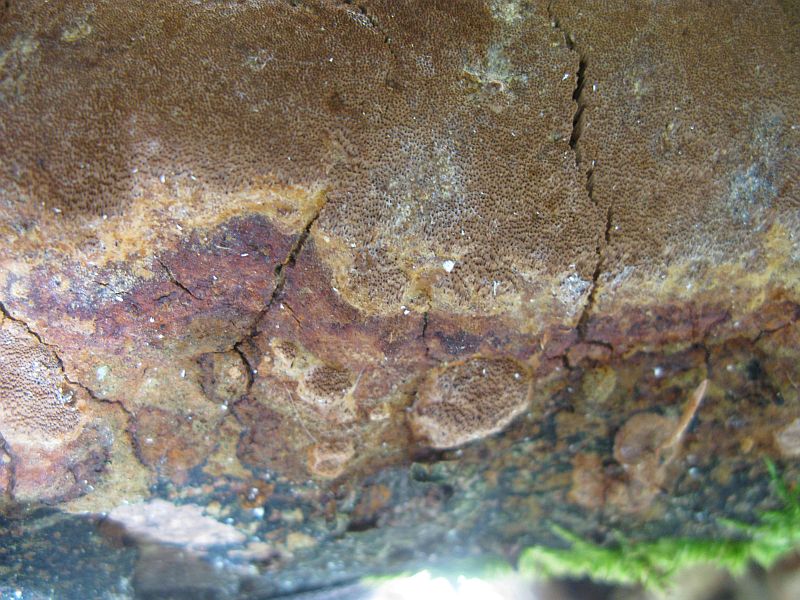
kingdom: Fungi
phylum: Basidiomycota
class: Agaricomycetes
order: Hymenochaetales
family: Hymenochaetaceae
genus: Fuscoporia
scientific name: Fuscoporia ferrea
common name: skorpe-ildporesvamp
